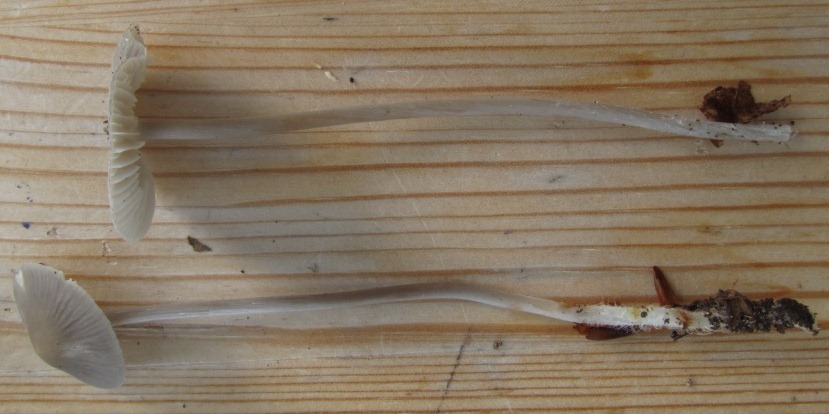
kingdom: Fungi
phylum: Basidiomycota
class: Agaricomycetes
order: Agaricales
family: Mycenaceae
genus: Mycena
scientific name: Mycena polygramma
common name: mangestribet huesvamp
